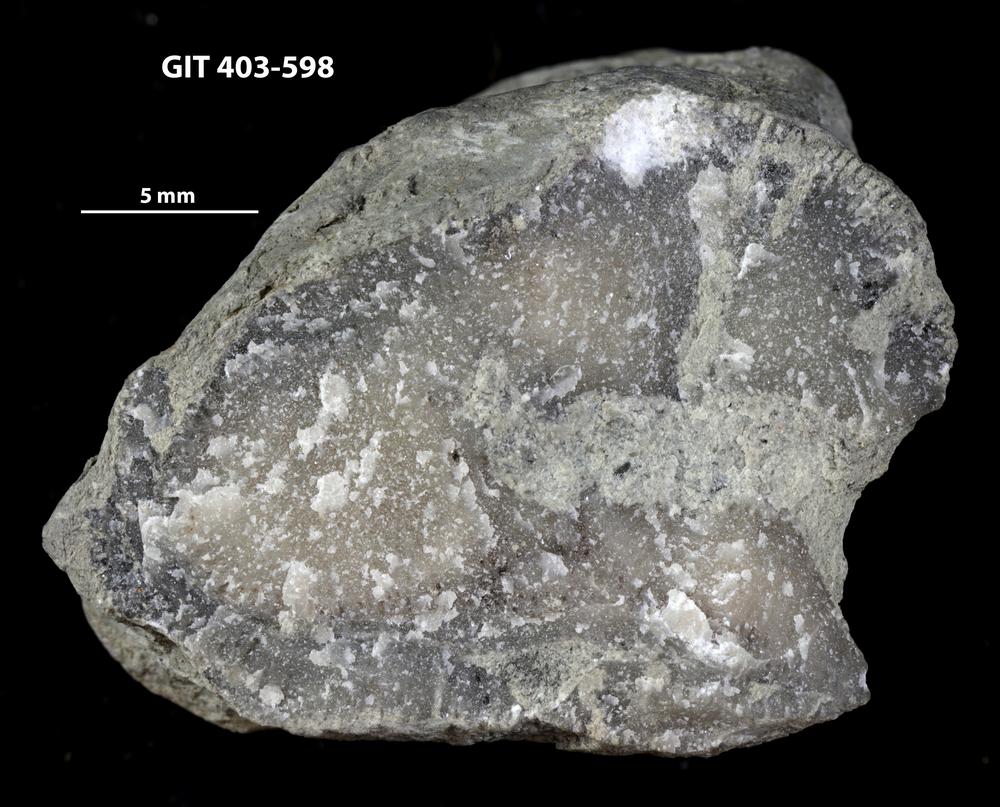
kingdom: Animalia
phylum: Bryozoa
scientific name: Bryozoa
